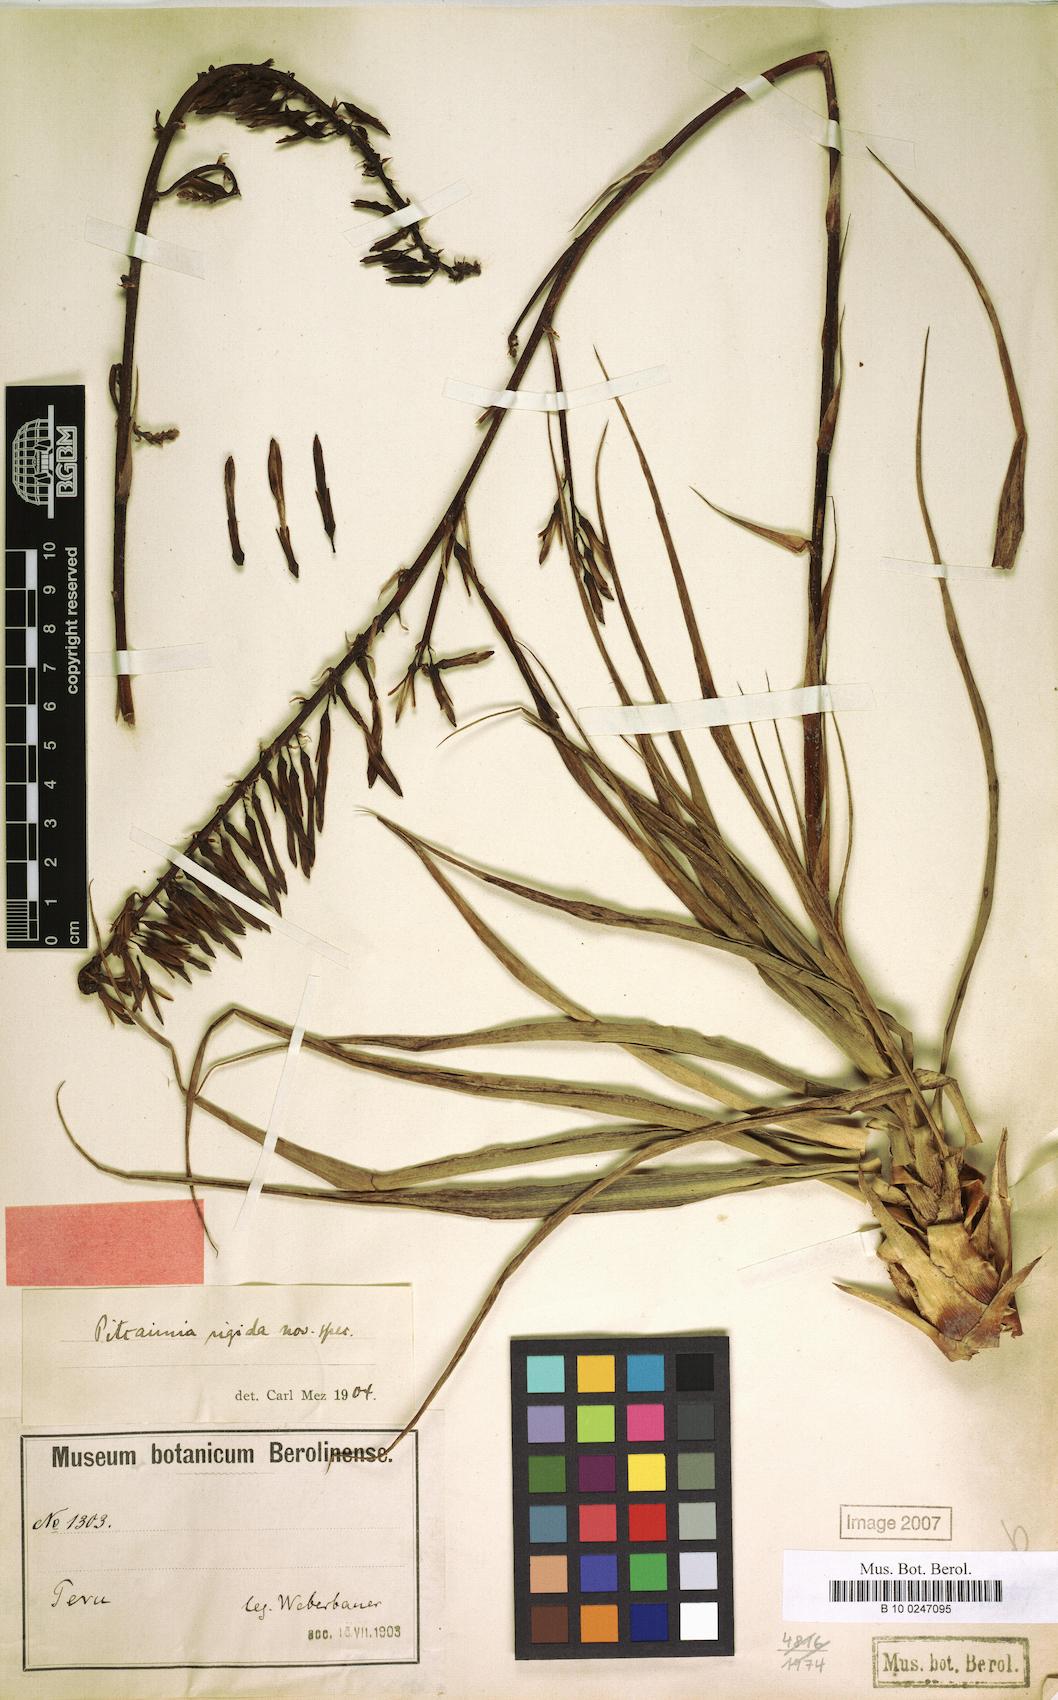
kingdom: Plantae
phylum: Tracheophyta
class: Liliopsida
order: Poales
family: Bromeliaceae
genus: Pitcairnia
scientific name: Pitcairnia rigida
